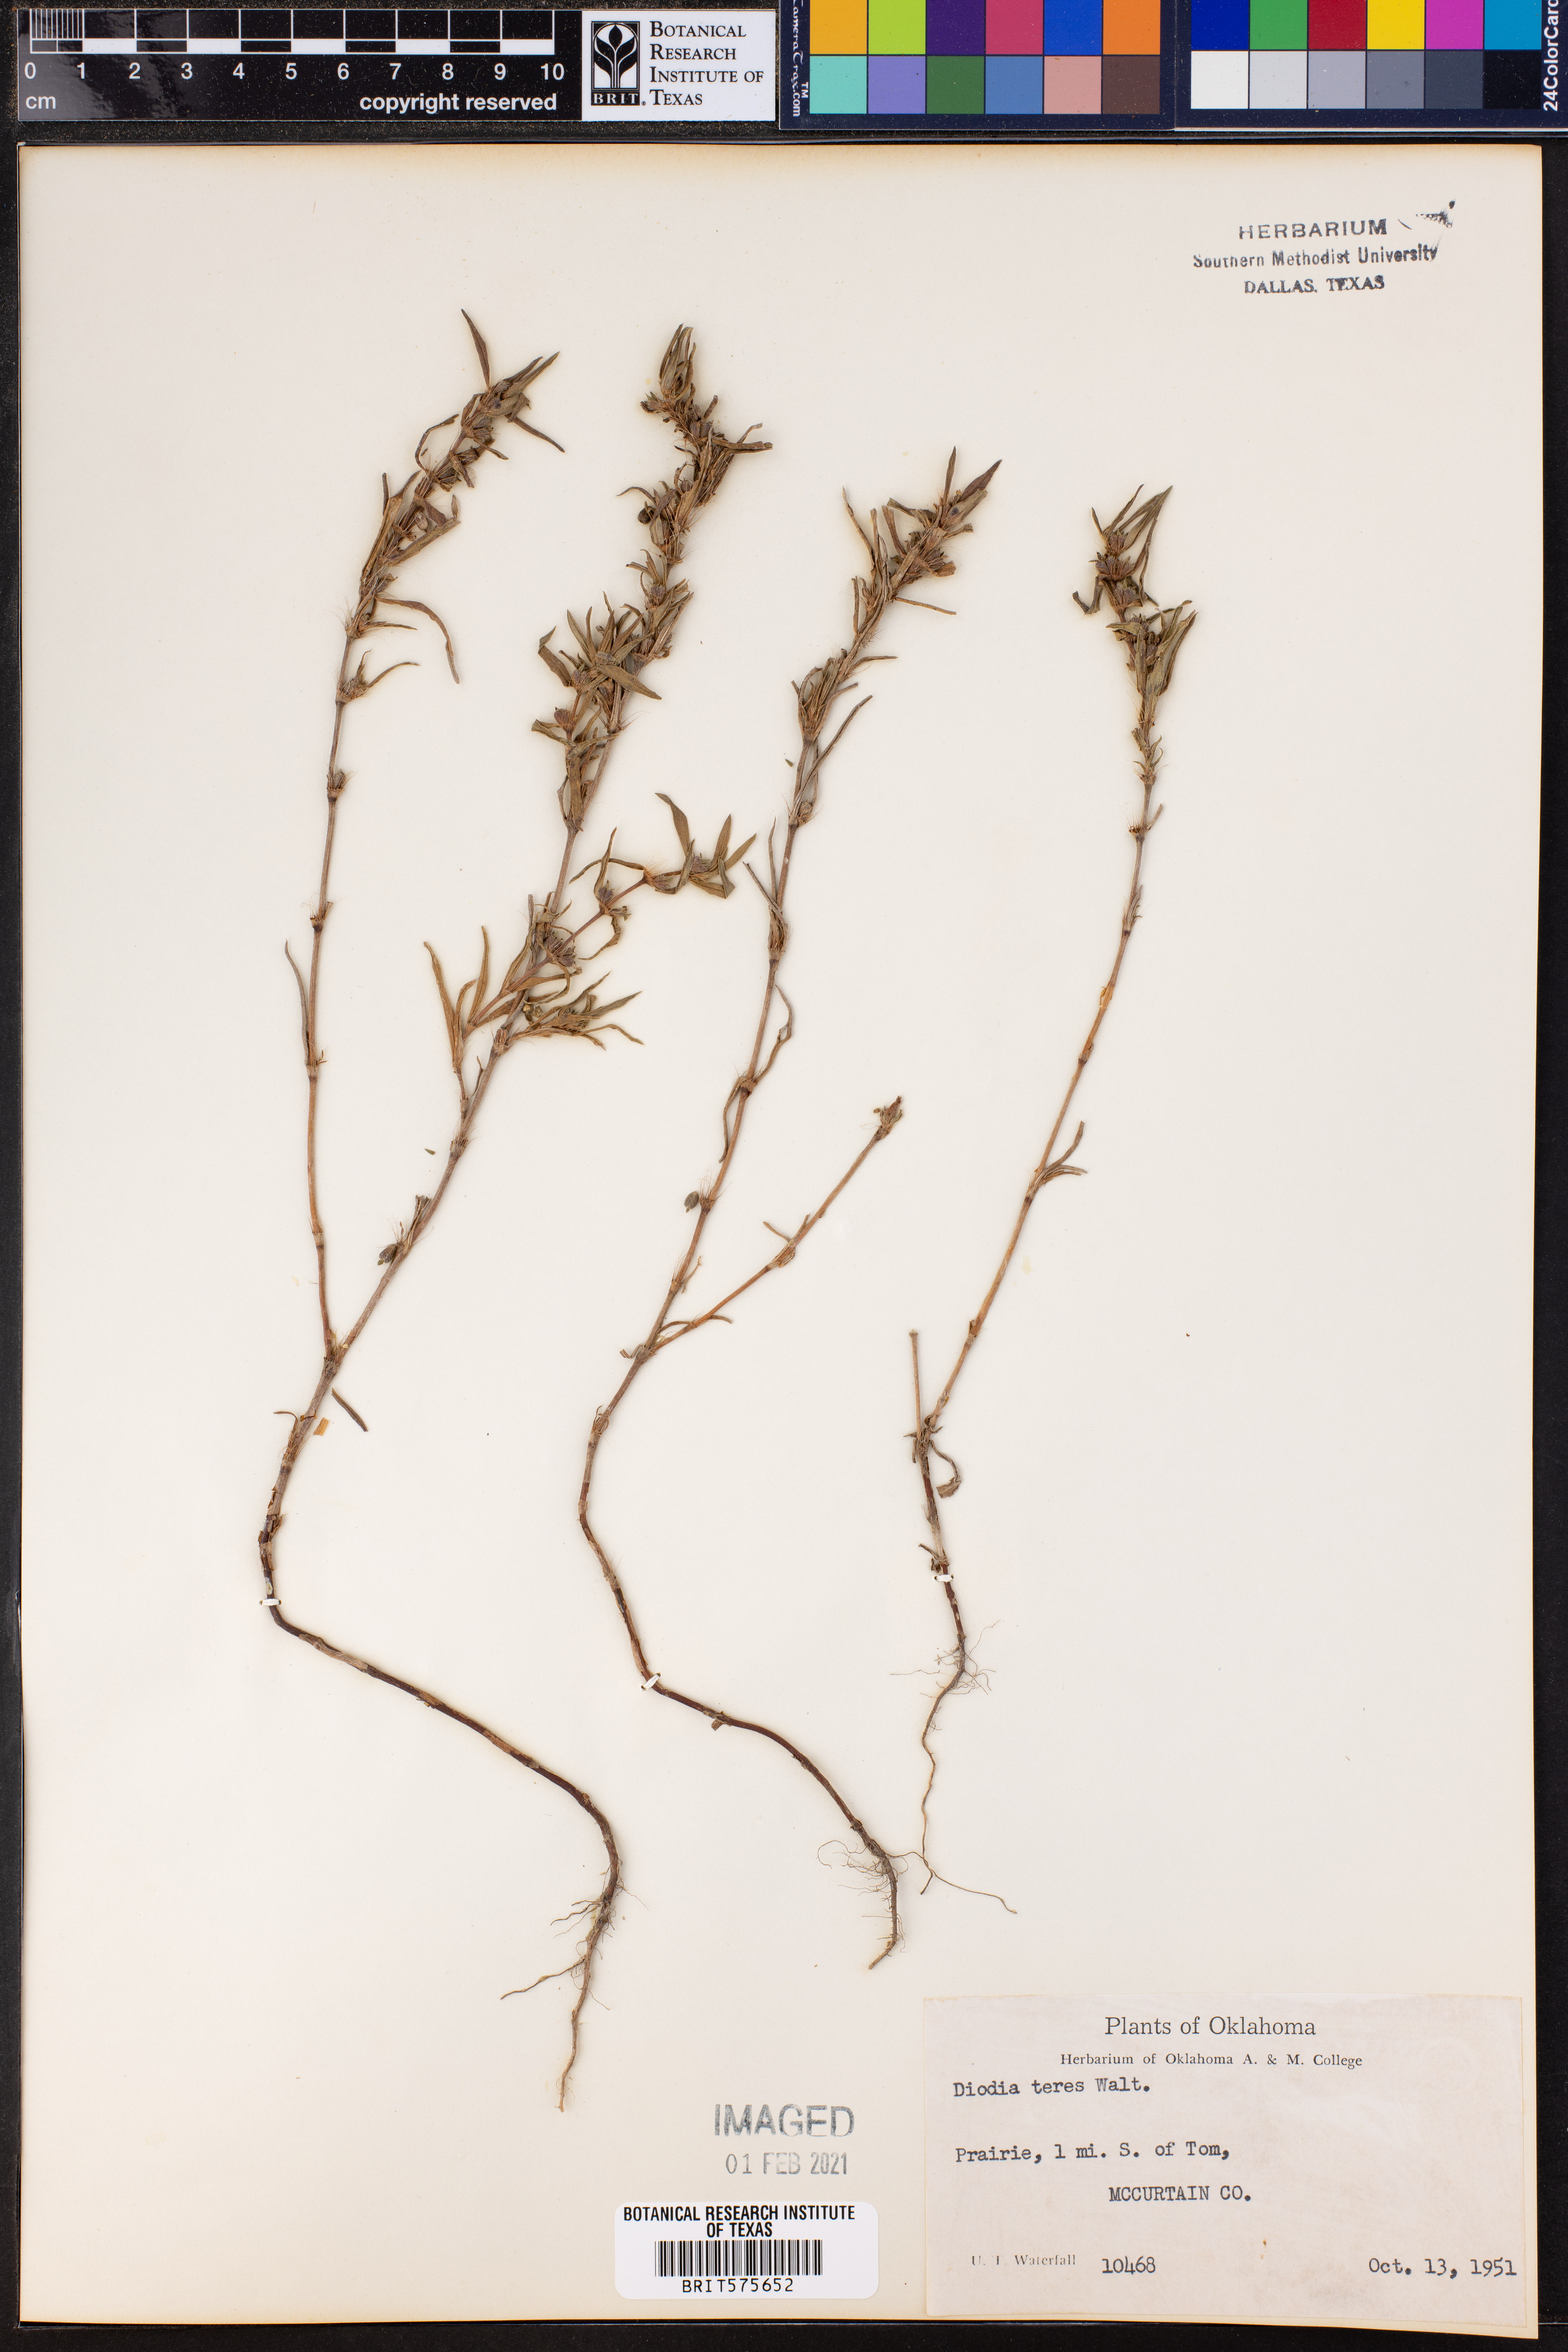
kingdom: Plantae
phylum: Tracheophyta
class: Magnoliopsida
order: Gentianales
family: Rubiaceae
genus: Hexasepalum
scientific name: Hexasepalum teres
